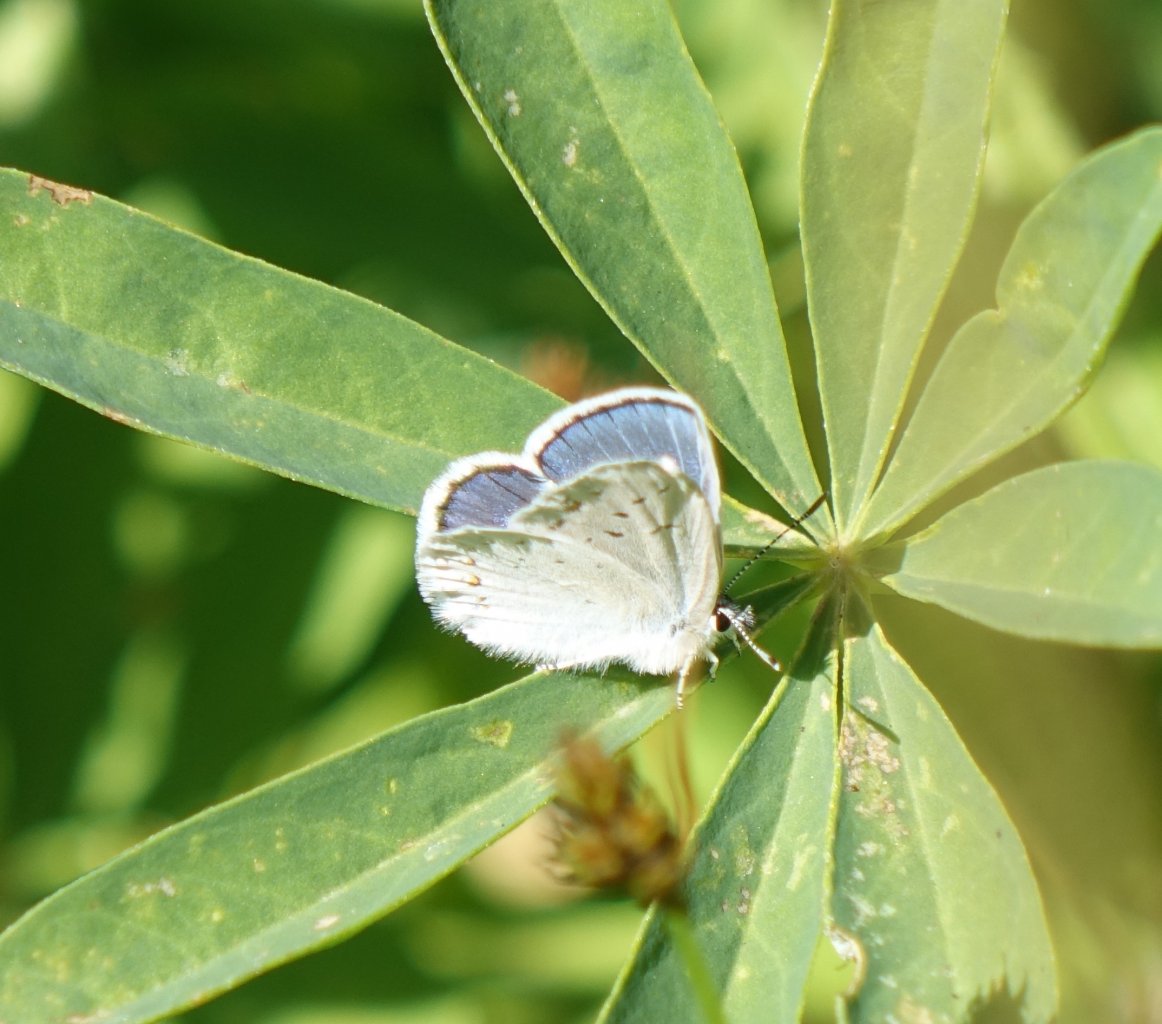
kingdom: Animalia
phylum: Arthropoda
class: Insecta
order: Lepidoptera
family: Lycaenidae
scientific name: Lycaenidae
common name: Gossamerwings
